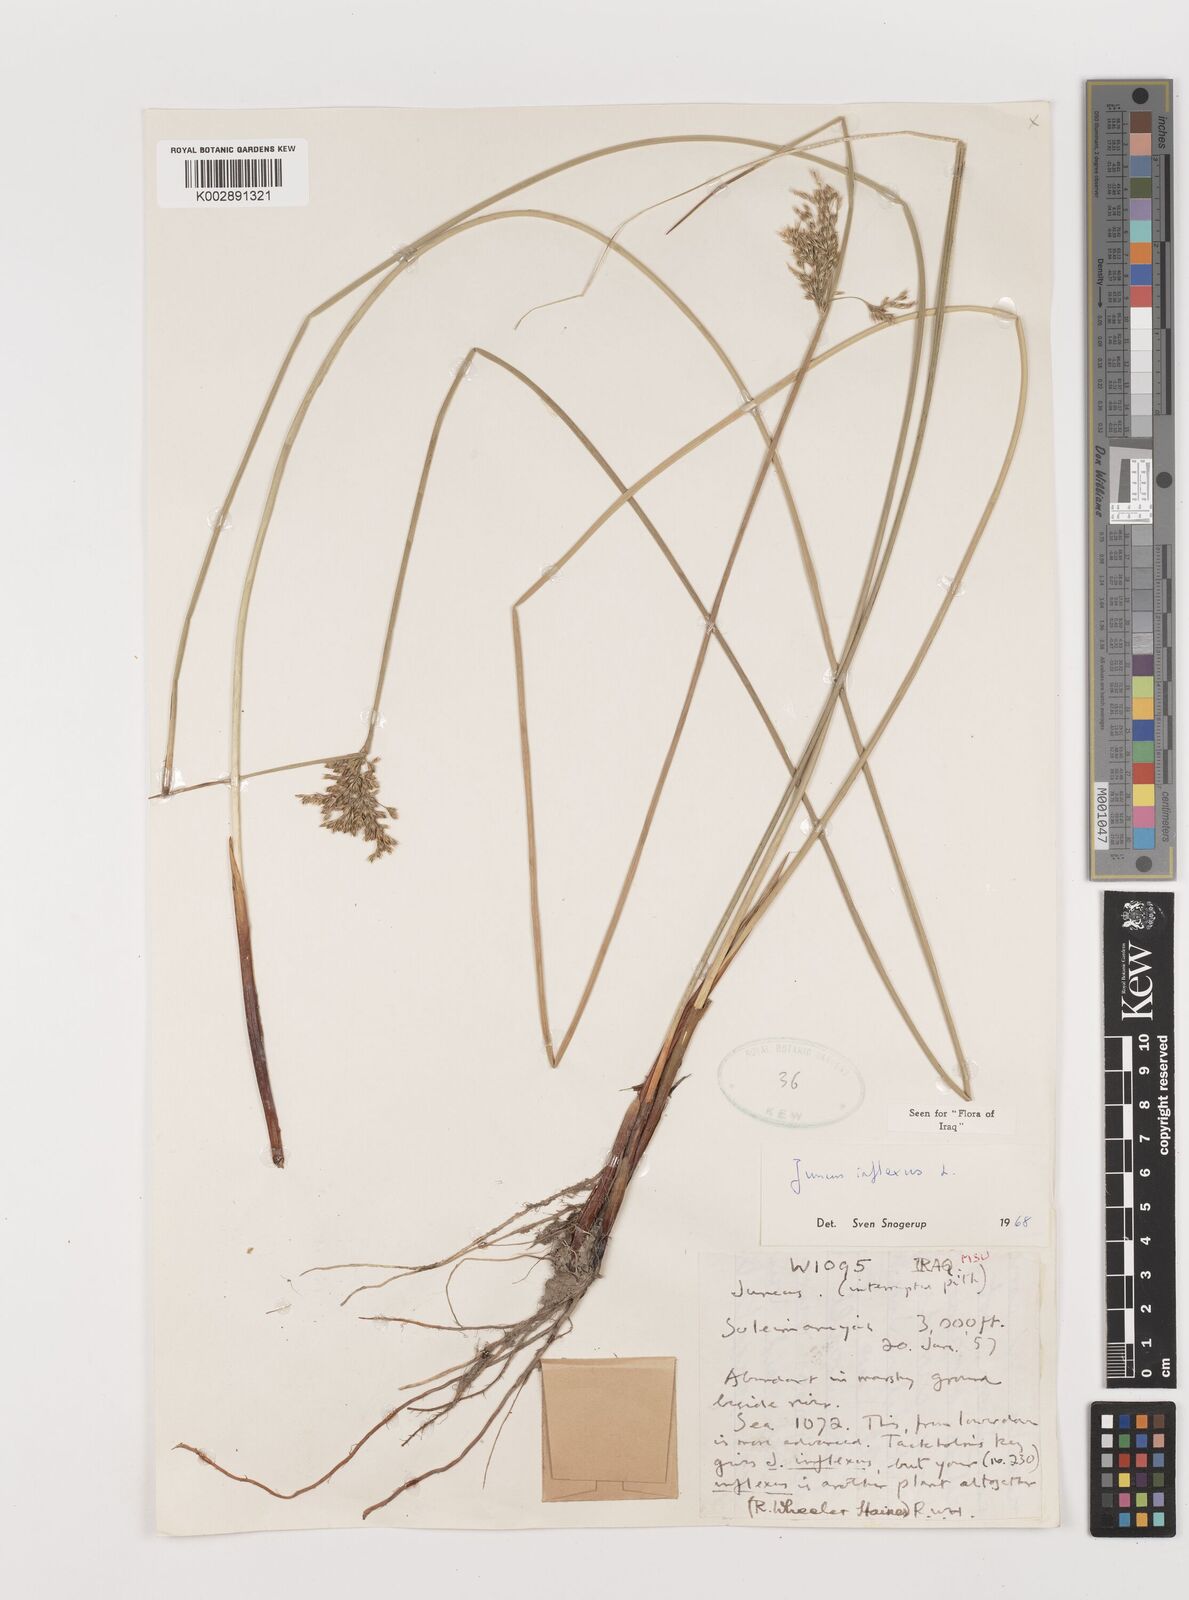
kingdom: Plantae
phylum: Tracheophyta
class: Liliopsida
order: Poales
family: Juncaceae
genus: Juncus
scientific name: Juncus inflexus
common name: Hard rush
